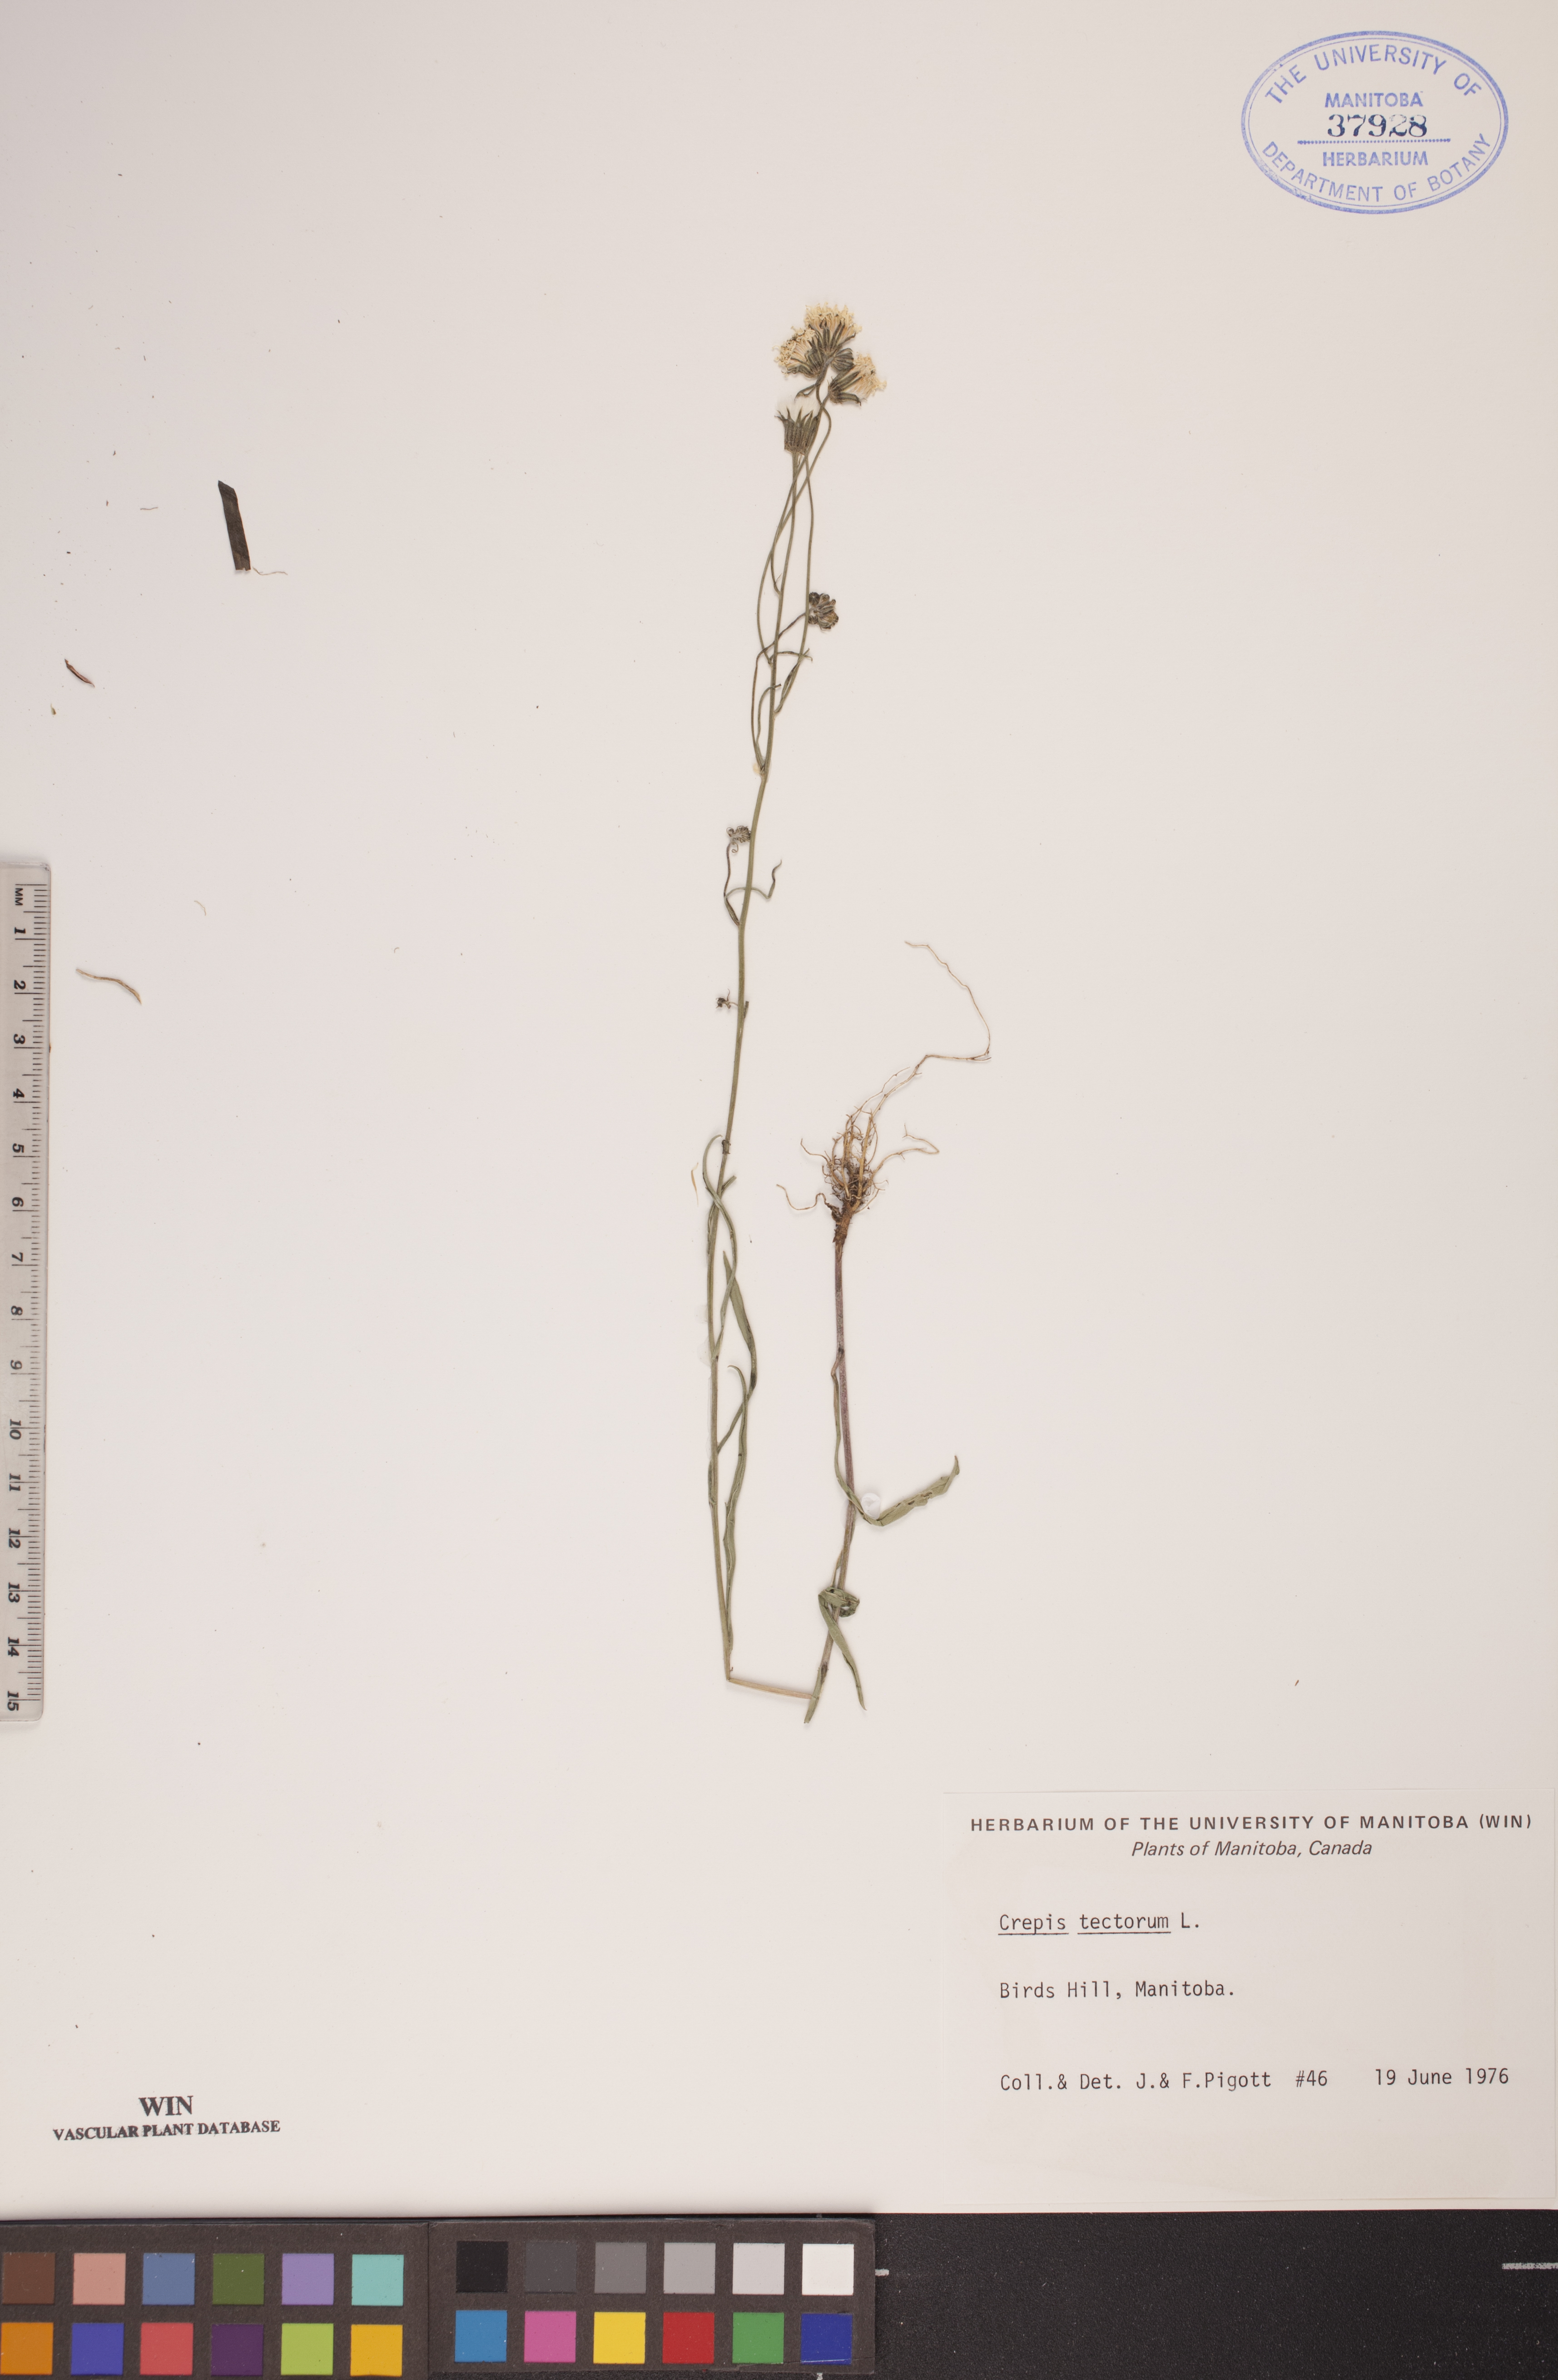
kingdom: Plantae
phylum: Tracheophyta
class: Magnoliopsida
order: Asterales
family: Asteraceae
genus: Crepis
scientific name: Crepis tectorum
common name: Narrow-leaved hawk's-beard
